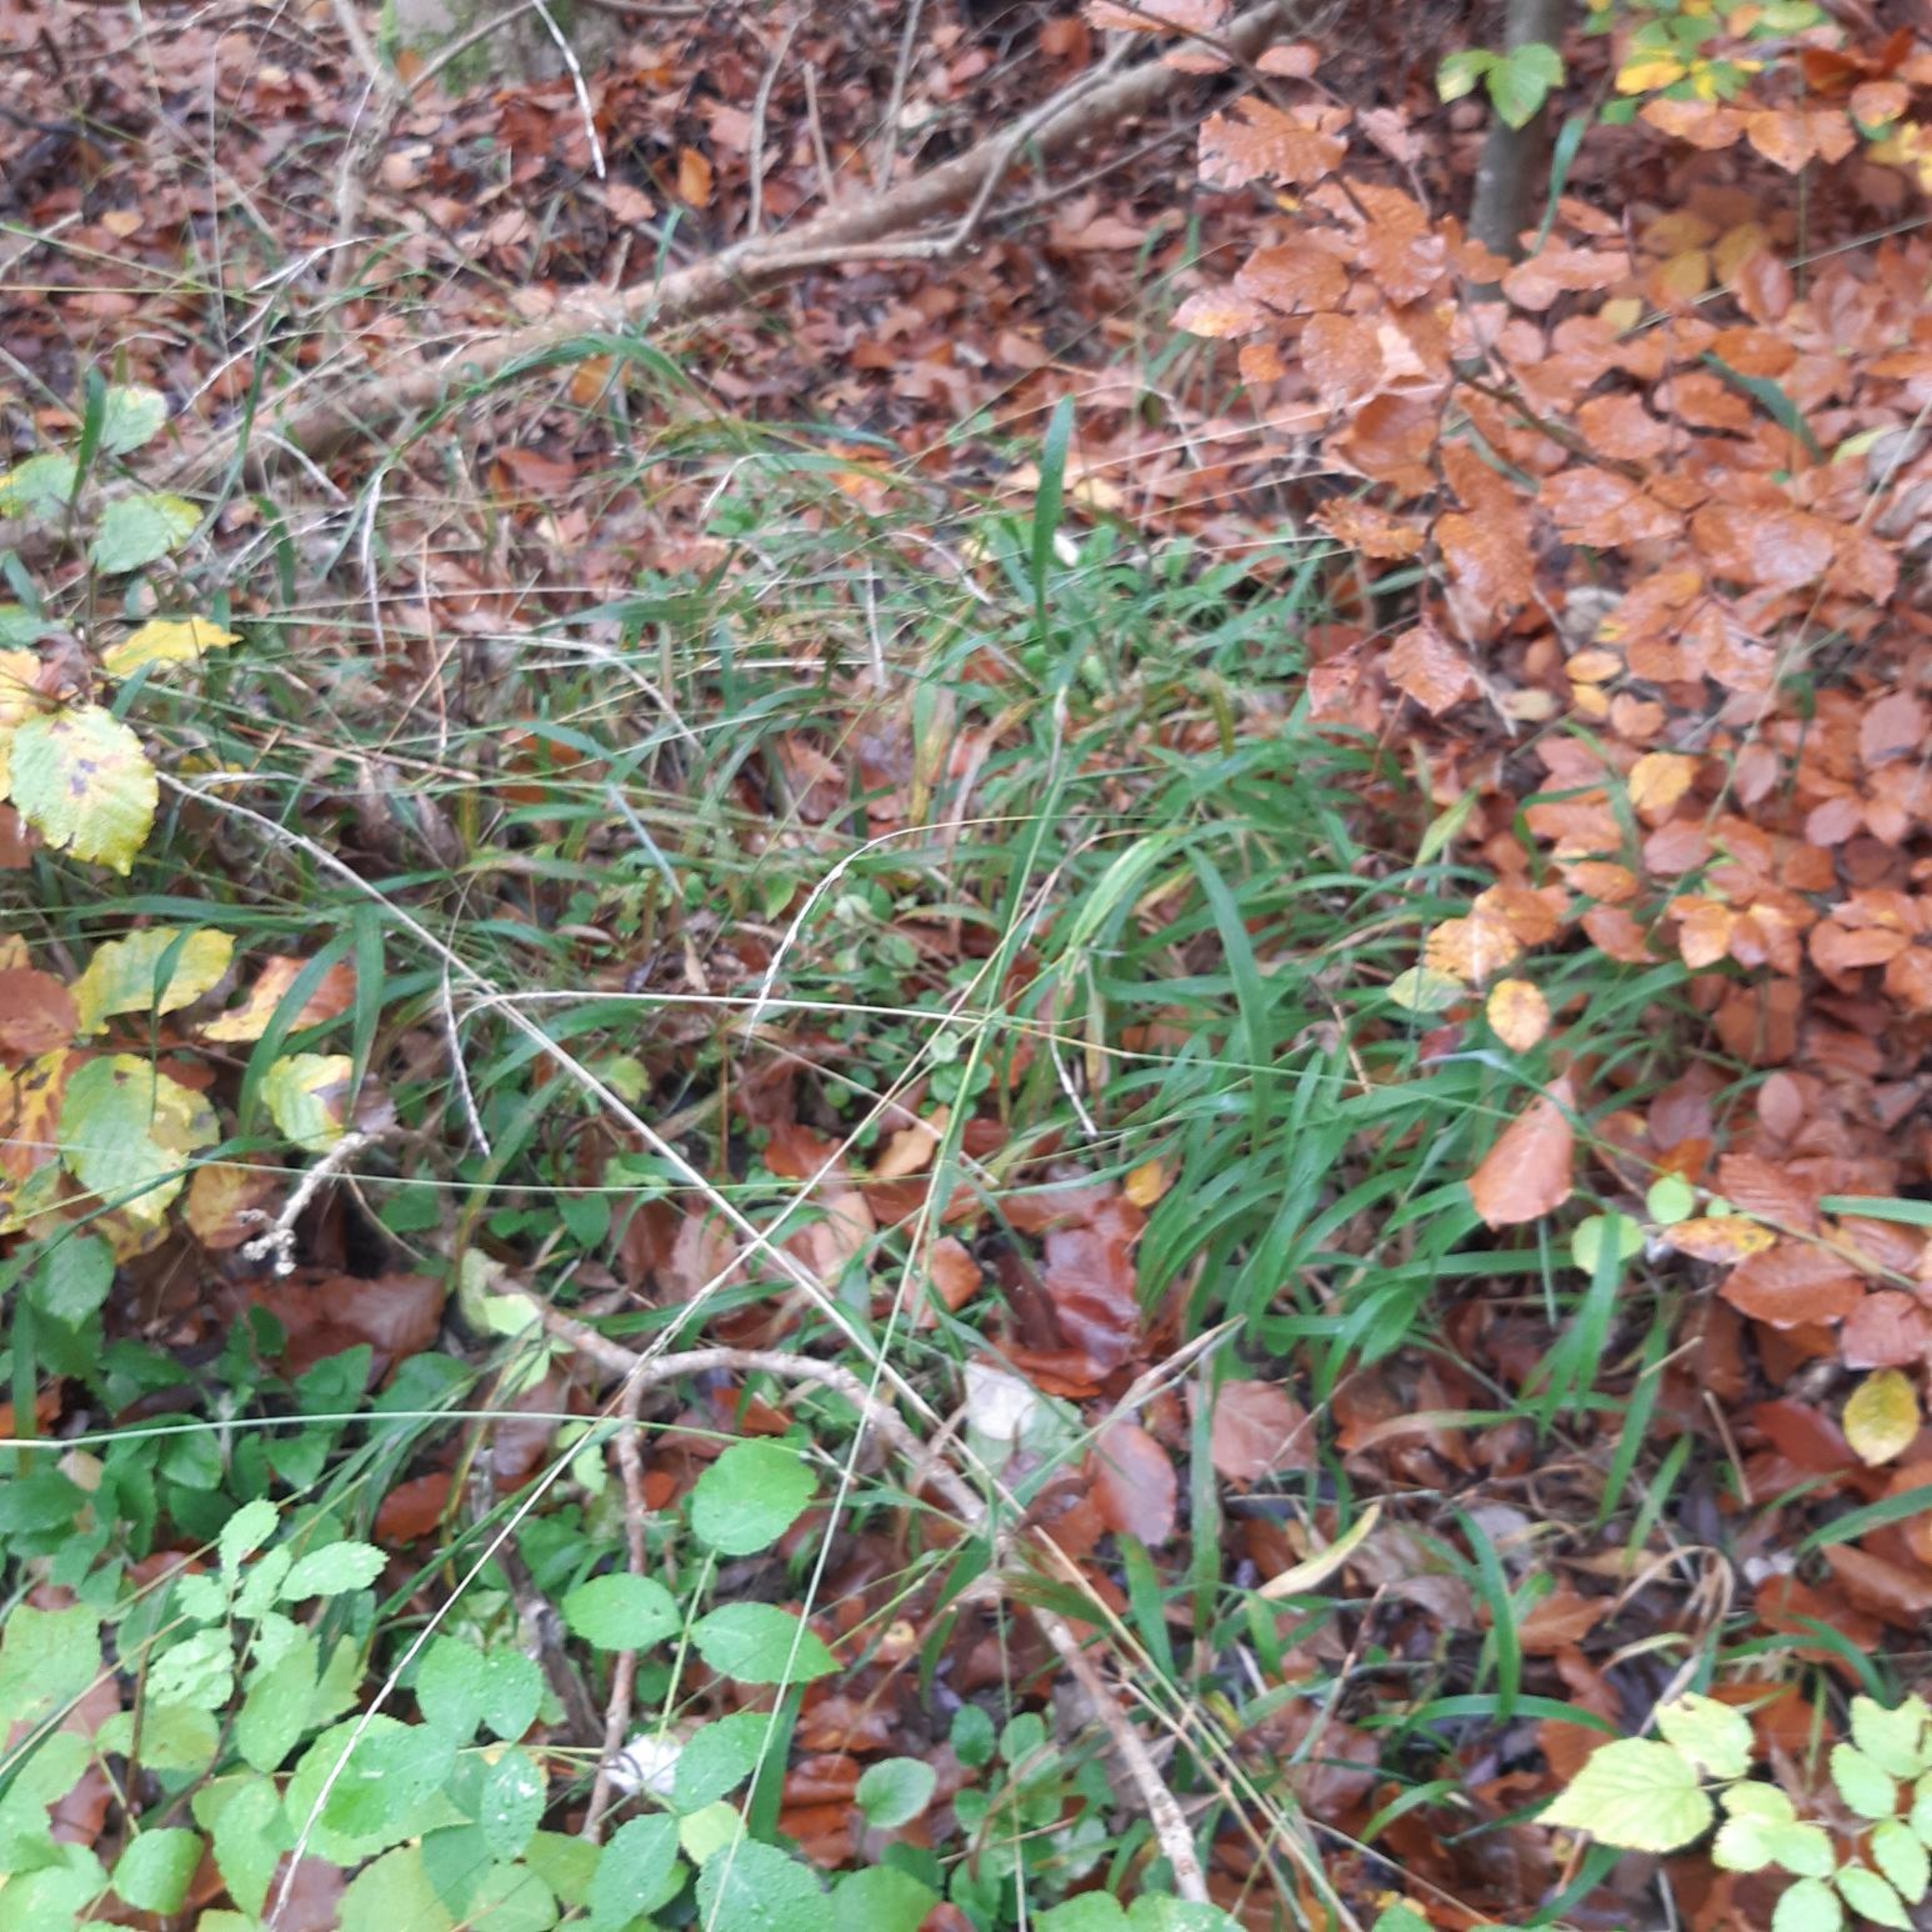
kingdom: Plantae
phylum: Tracheophyta
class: Liliopsida
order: Poales
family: Poaceae
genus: Brachypodium
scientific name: Brachypodium sylvaticum
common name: Skov-stilkaks
